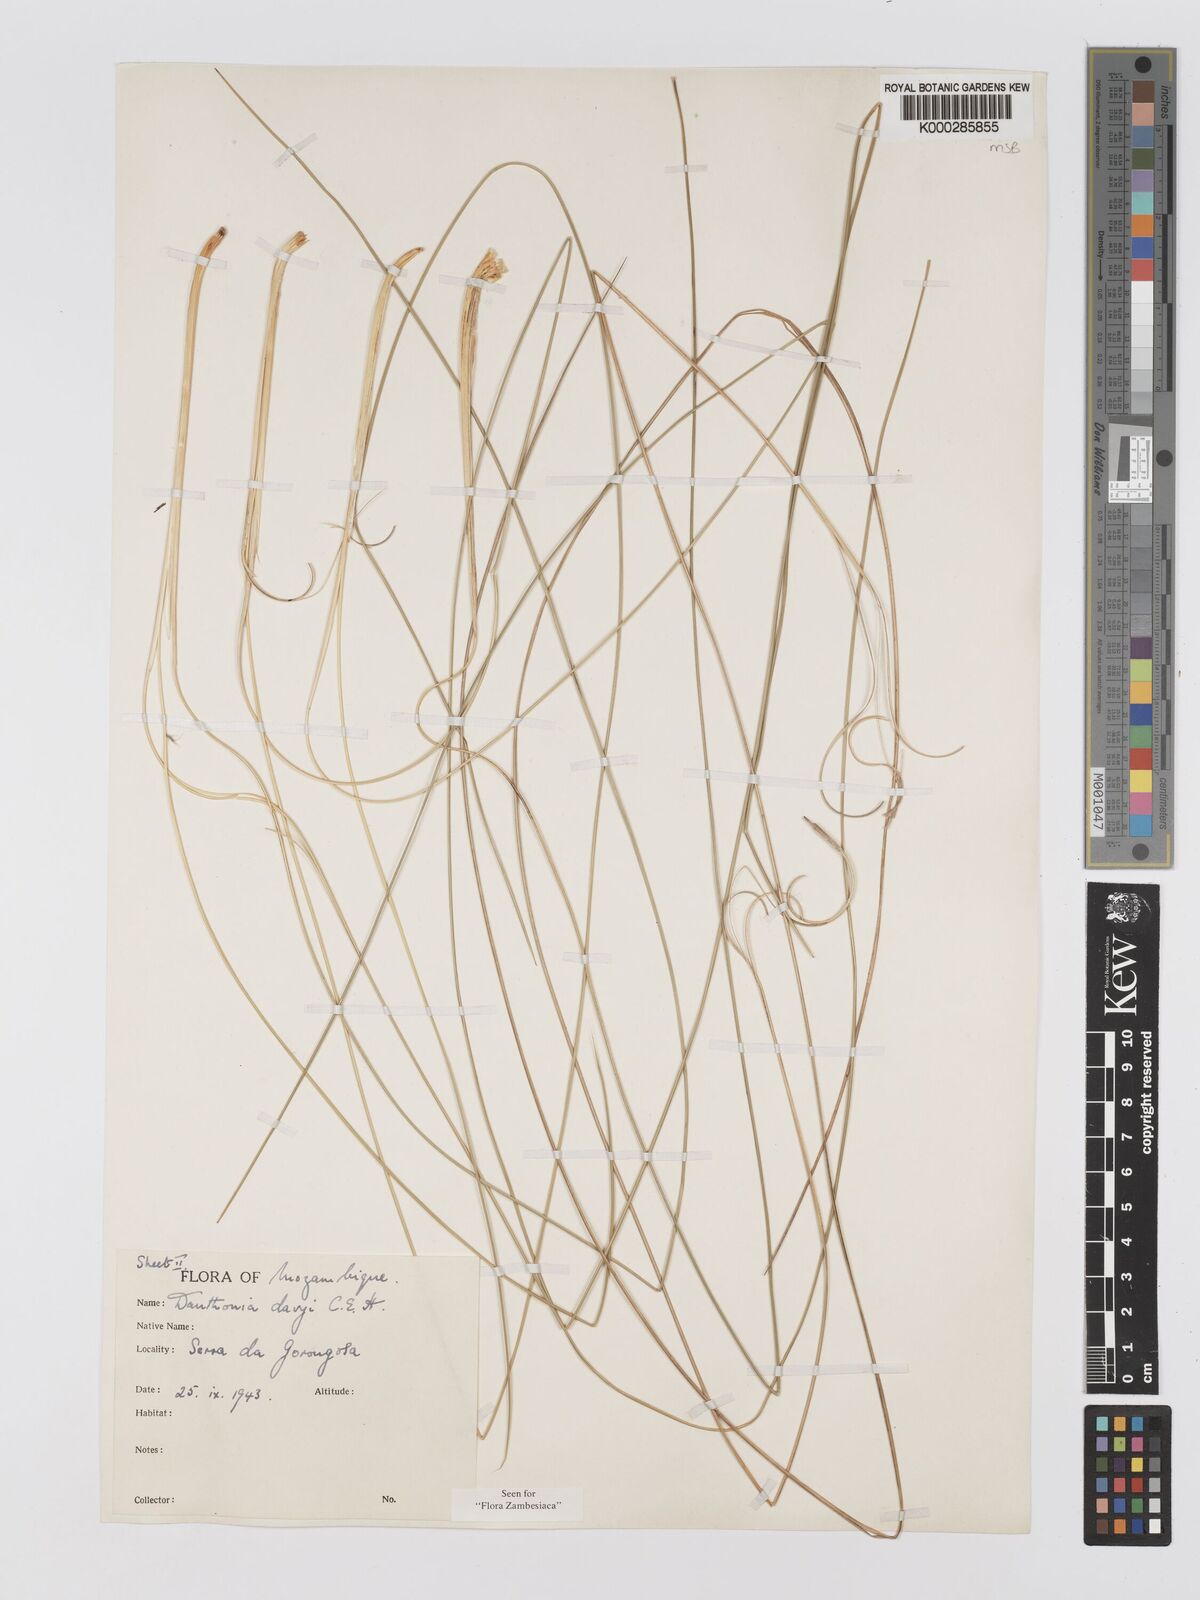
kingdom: Plantae
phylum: Tracheophyta
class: Liliopsida
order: Poales
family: Poaceae
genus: Merxmuellera
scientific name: Merxmuellera davyi
